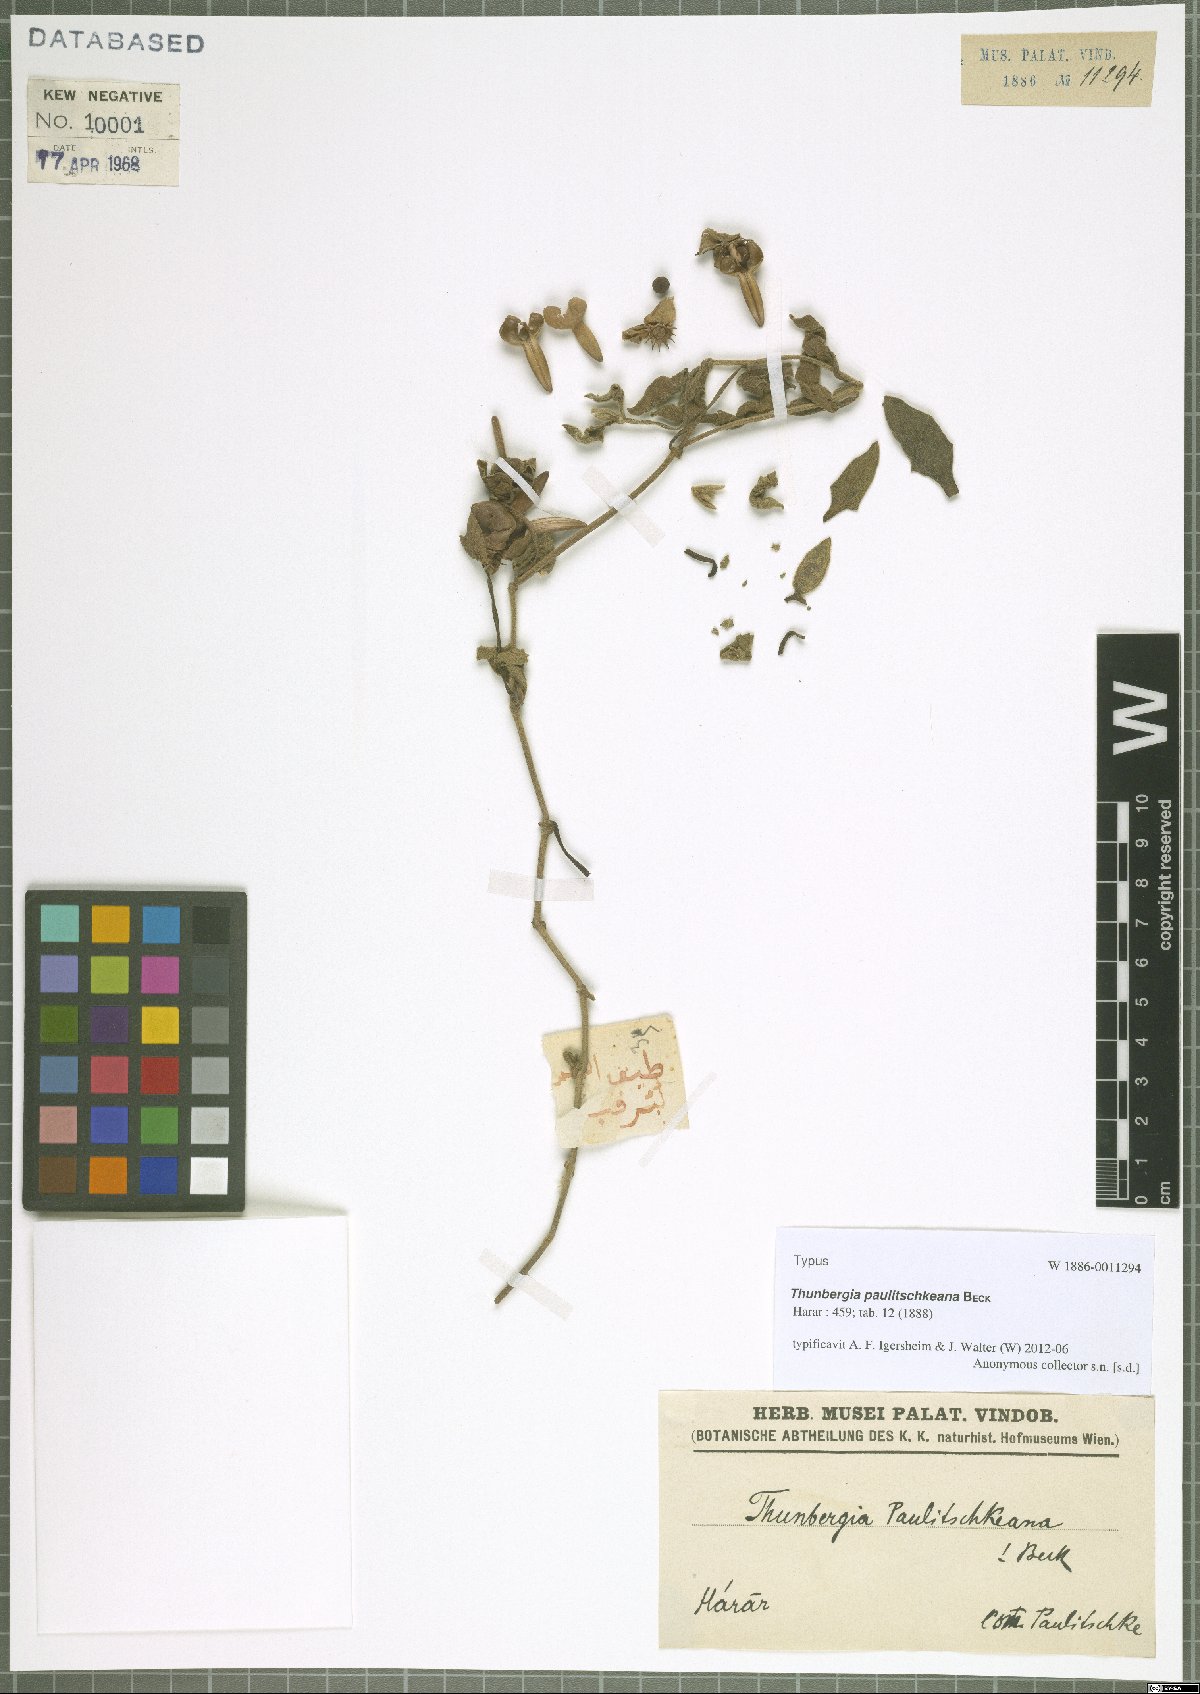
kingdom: Plantae
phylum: Tracheophyta
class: Magnoliopsida
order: Lamiales
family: Acanthaceae
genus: Thunbergia
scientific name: Thunbergia paulitschkeana
